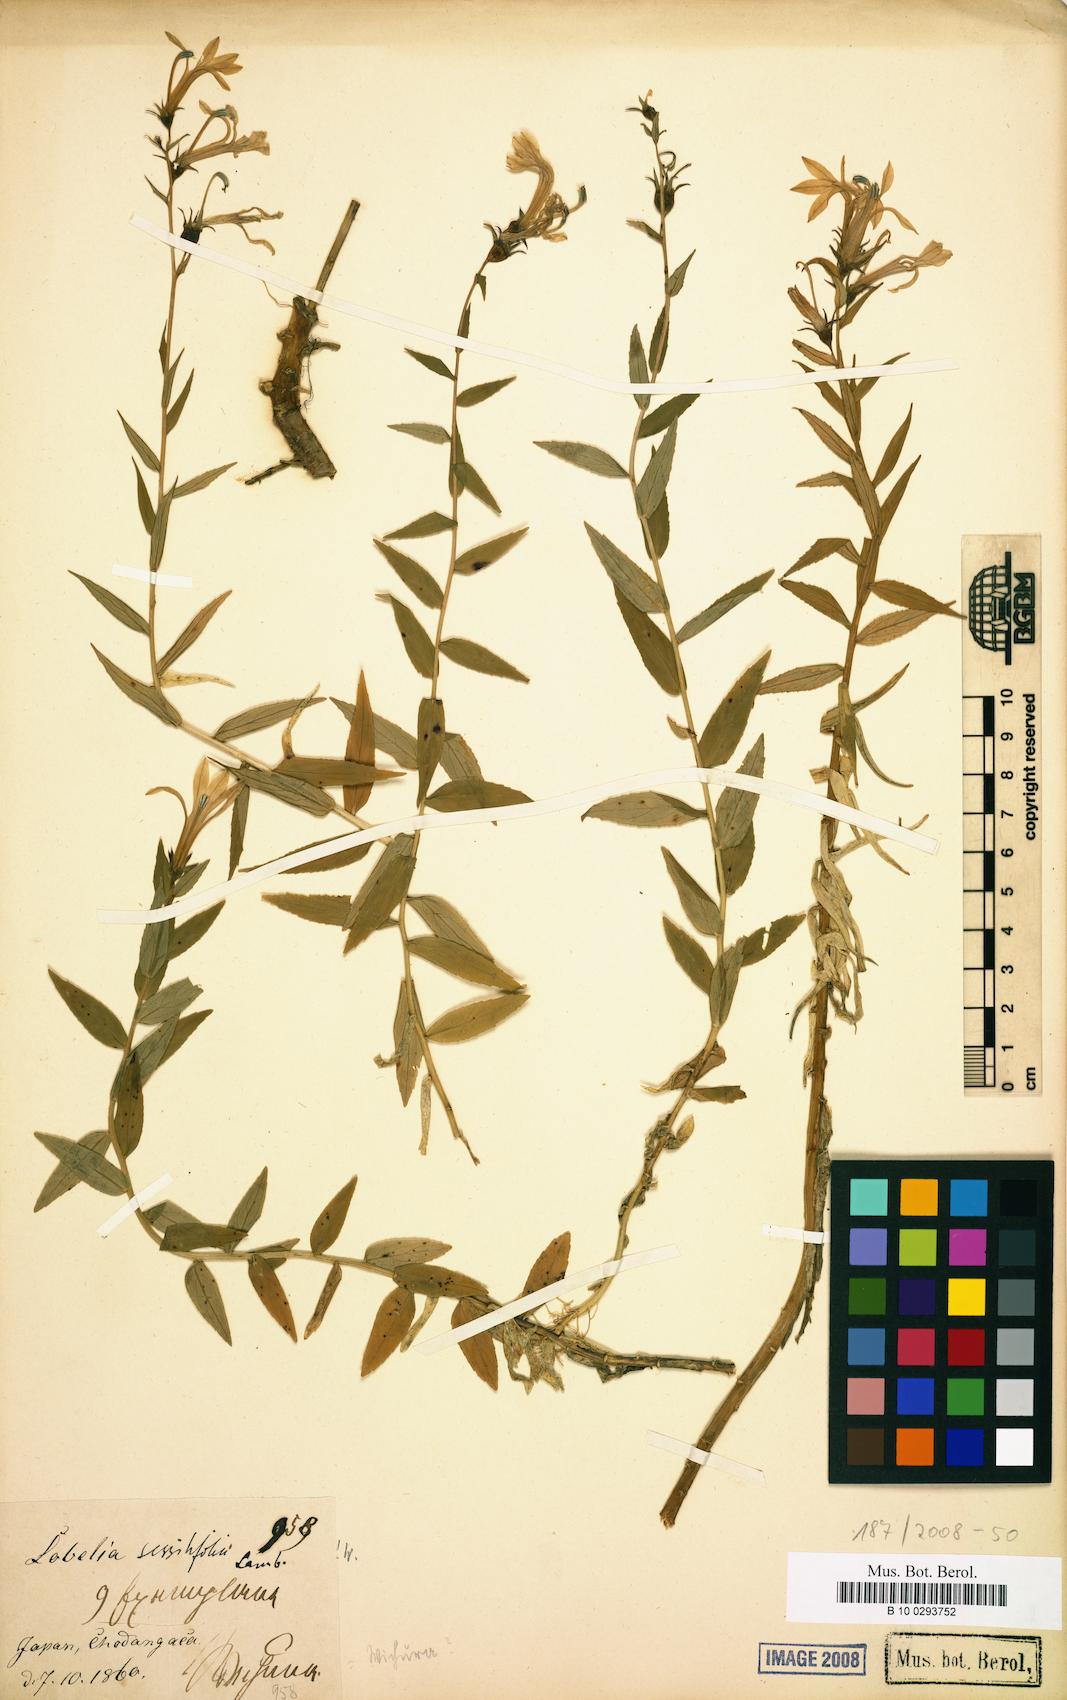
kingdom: Plantae
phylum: Tracheophyta
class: Magnoliopsida
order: Asterales
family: Campanulaceae
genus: Lobelia
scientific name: Lobelia sessilifolia
